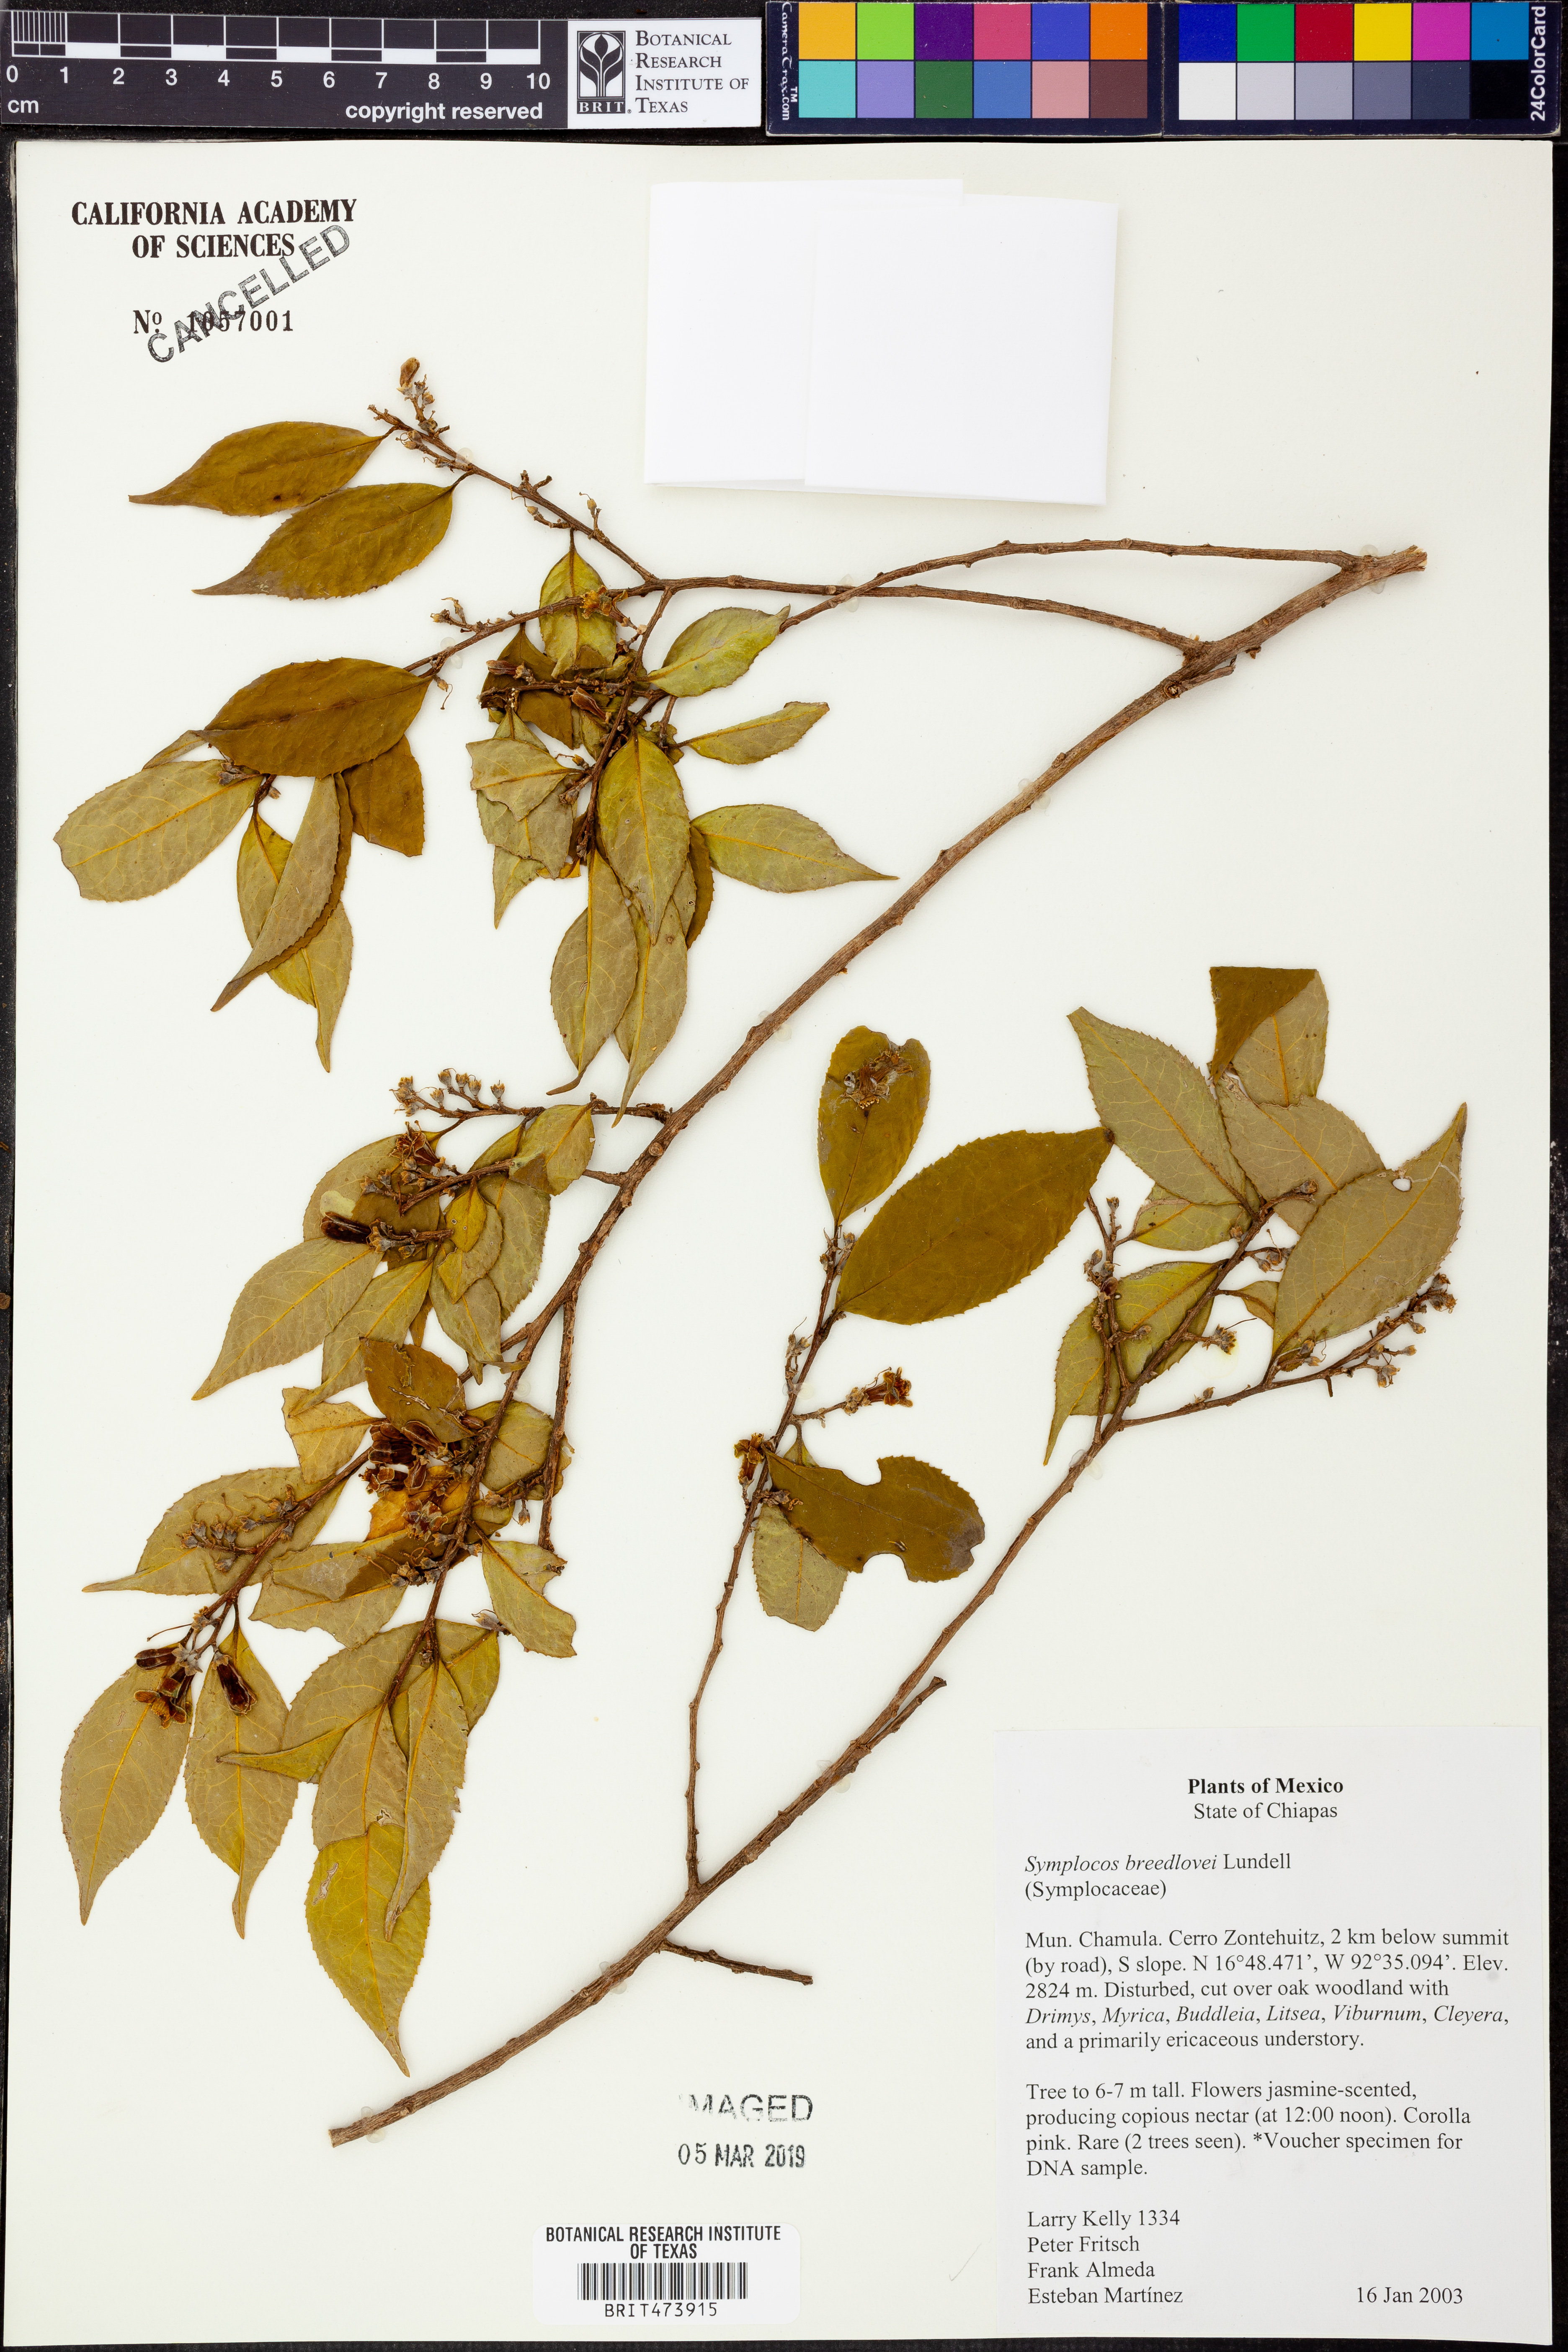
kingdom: Plantae
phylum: Tracheophyta
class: Magnoliopsida
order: Ericales
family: Symplocaceae
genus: Symplocos
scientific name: Symplocos breedlovei
